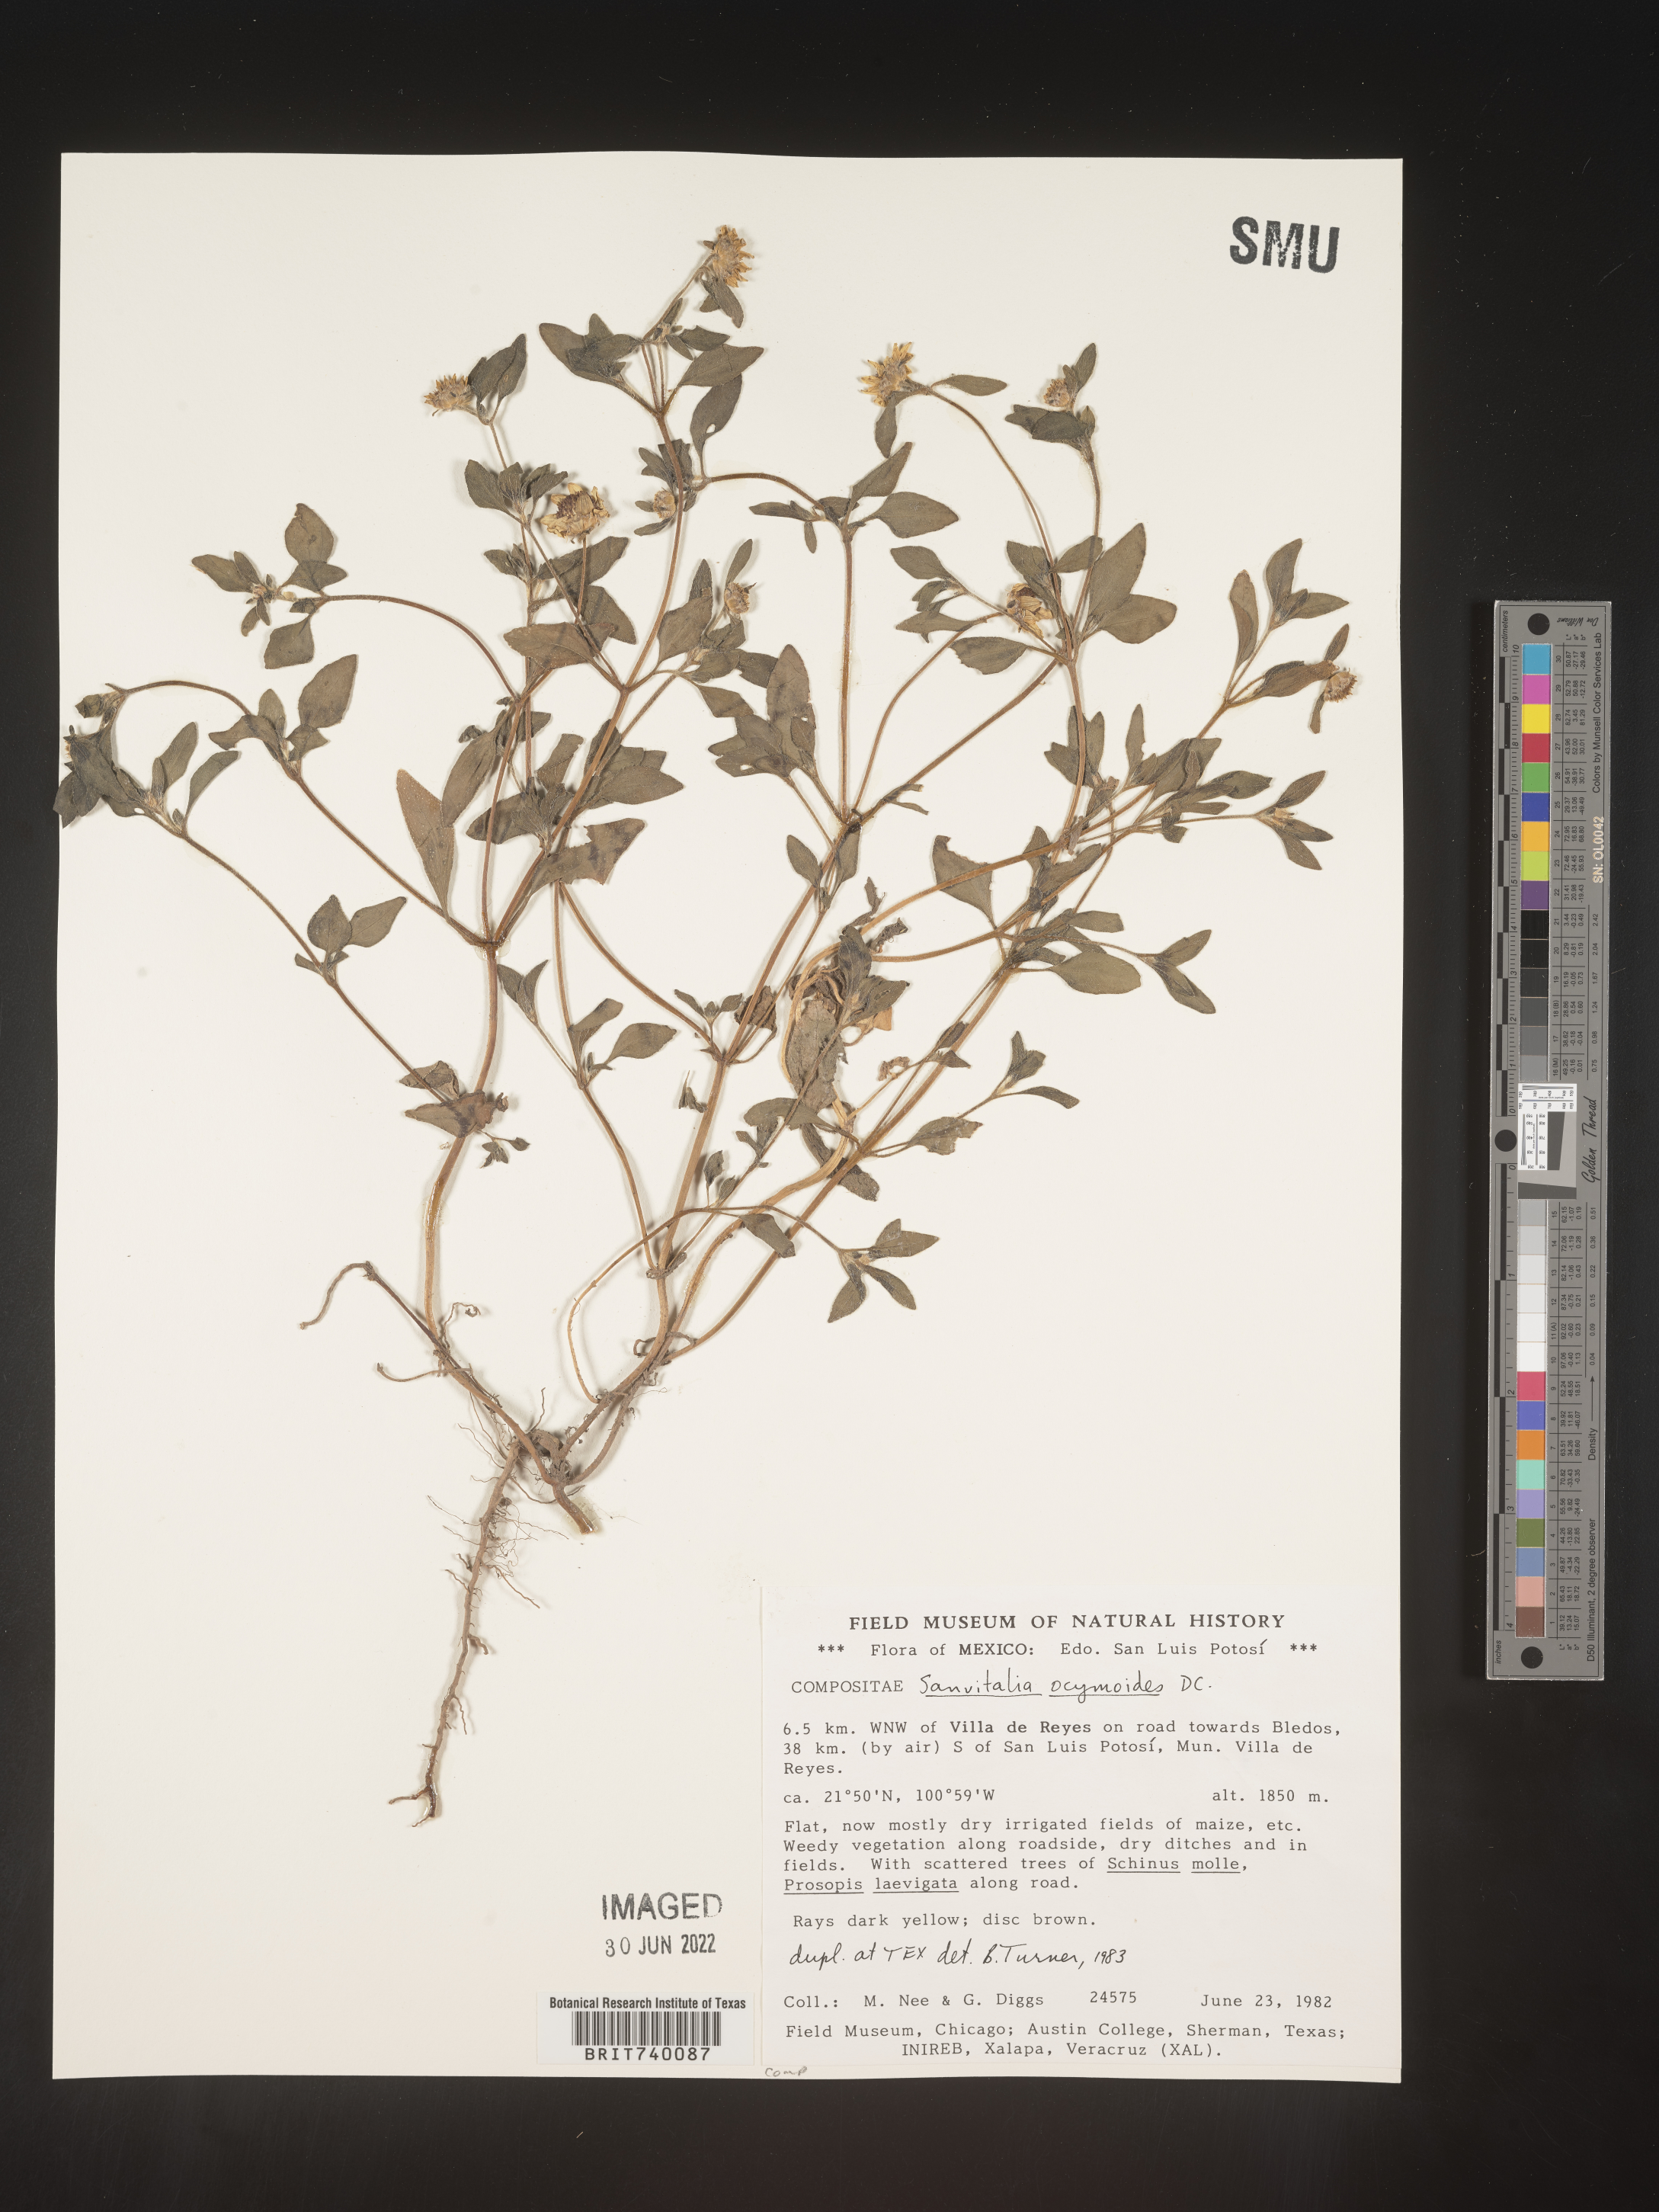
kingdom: Plantae
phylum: Tracheophyta
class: Magnoliopsida
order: Asterales
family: Asteraceae
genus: Sanvitalia
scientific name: Sanvitalia
